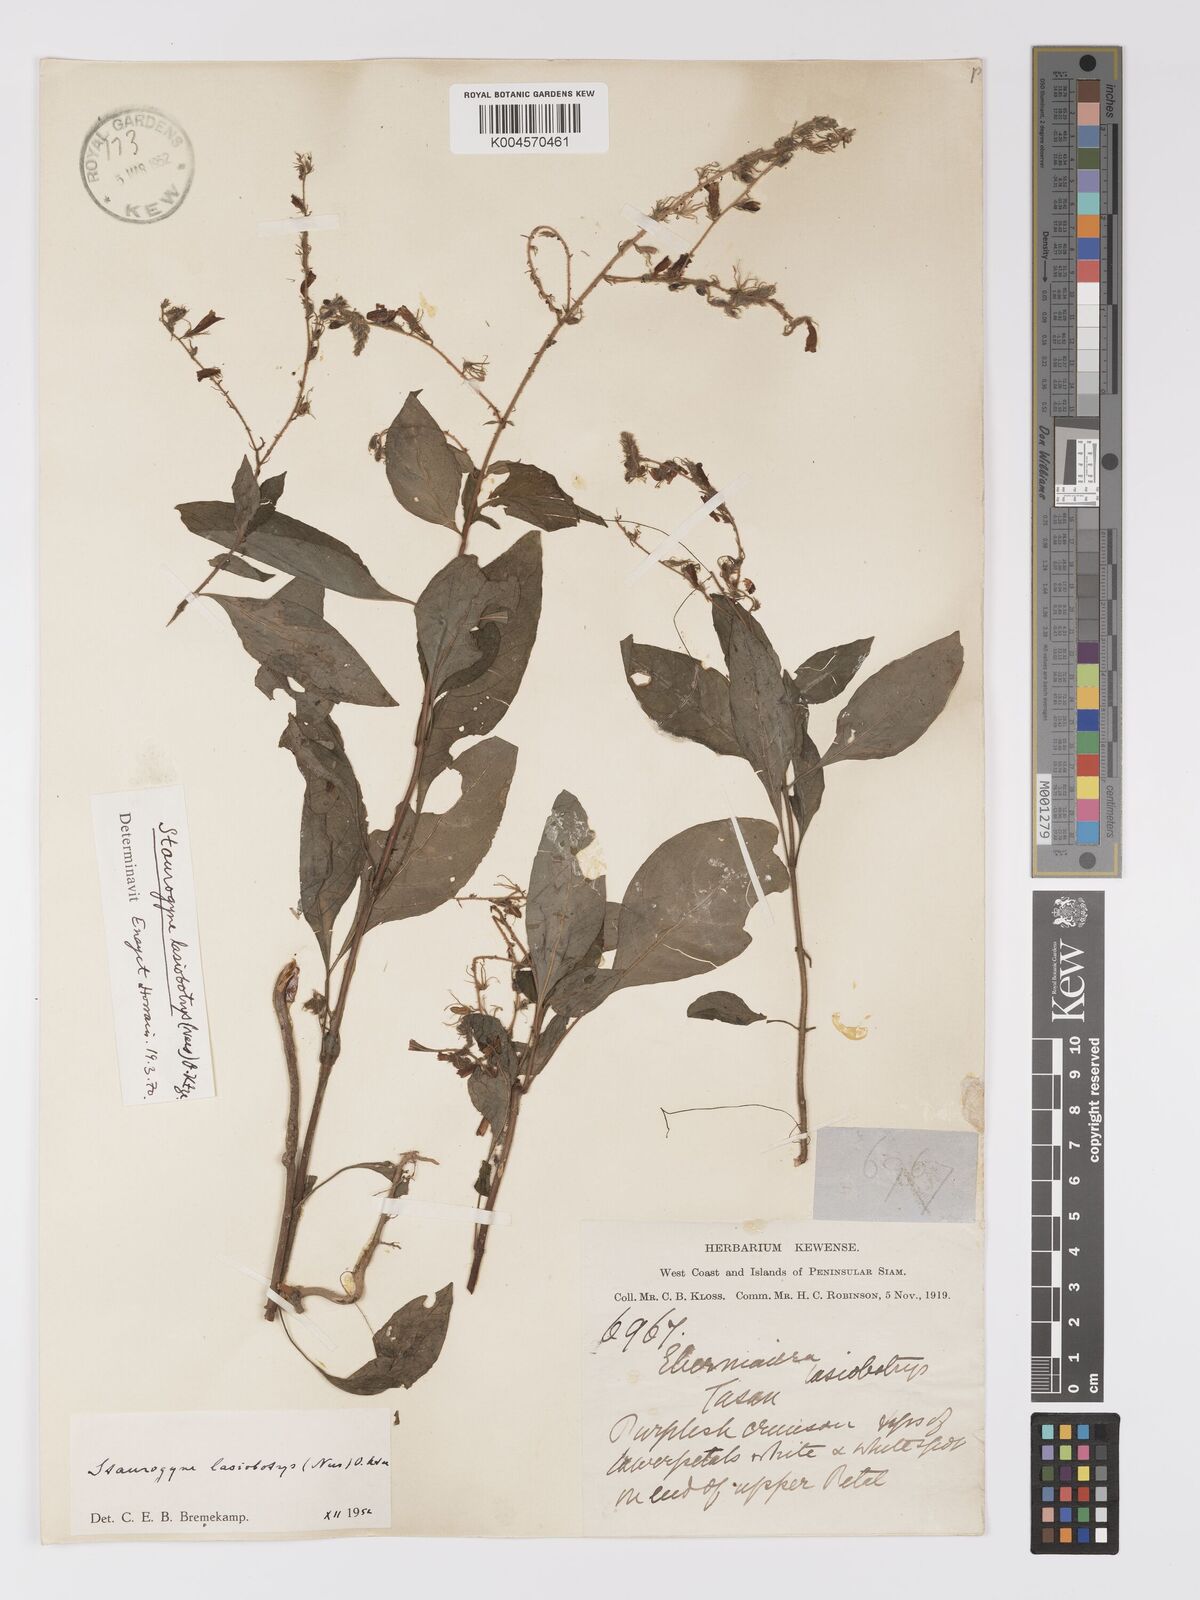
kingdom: Plantae
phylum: Tracheophyta
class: Magnoliopsida
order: Lamiales
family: Acanthaceae
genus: Staurogyne
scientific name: Staurogyne lasiobotrys
